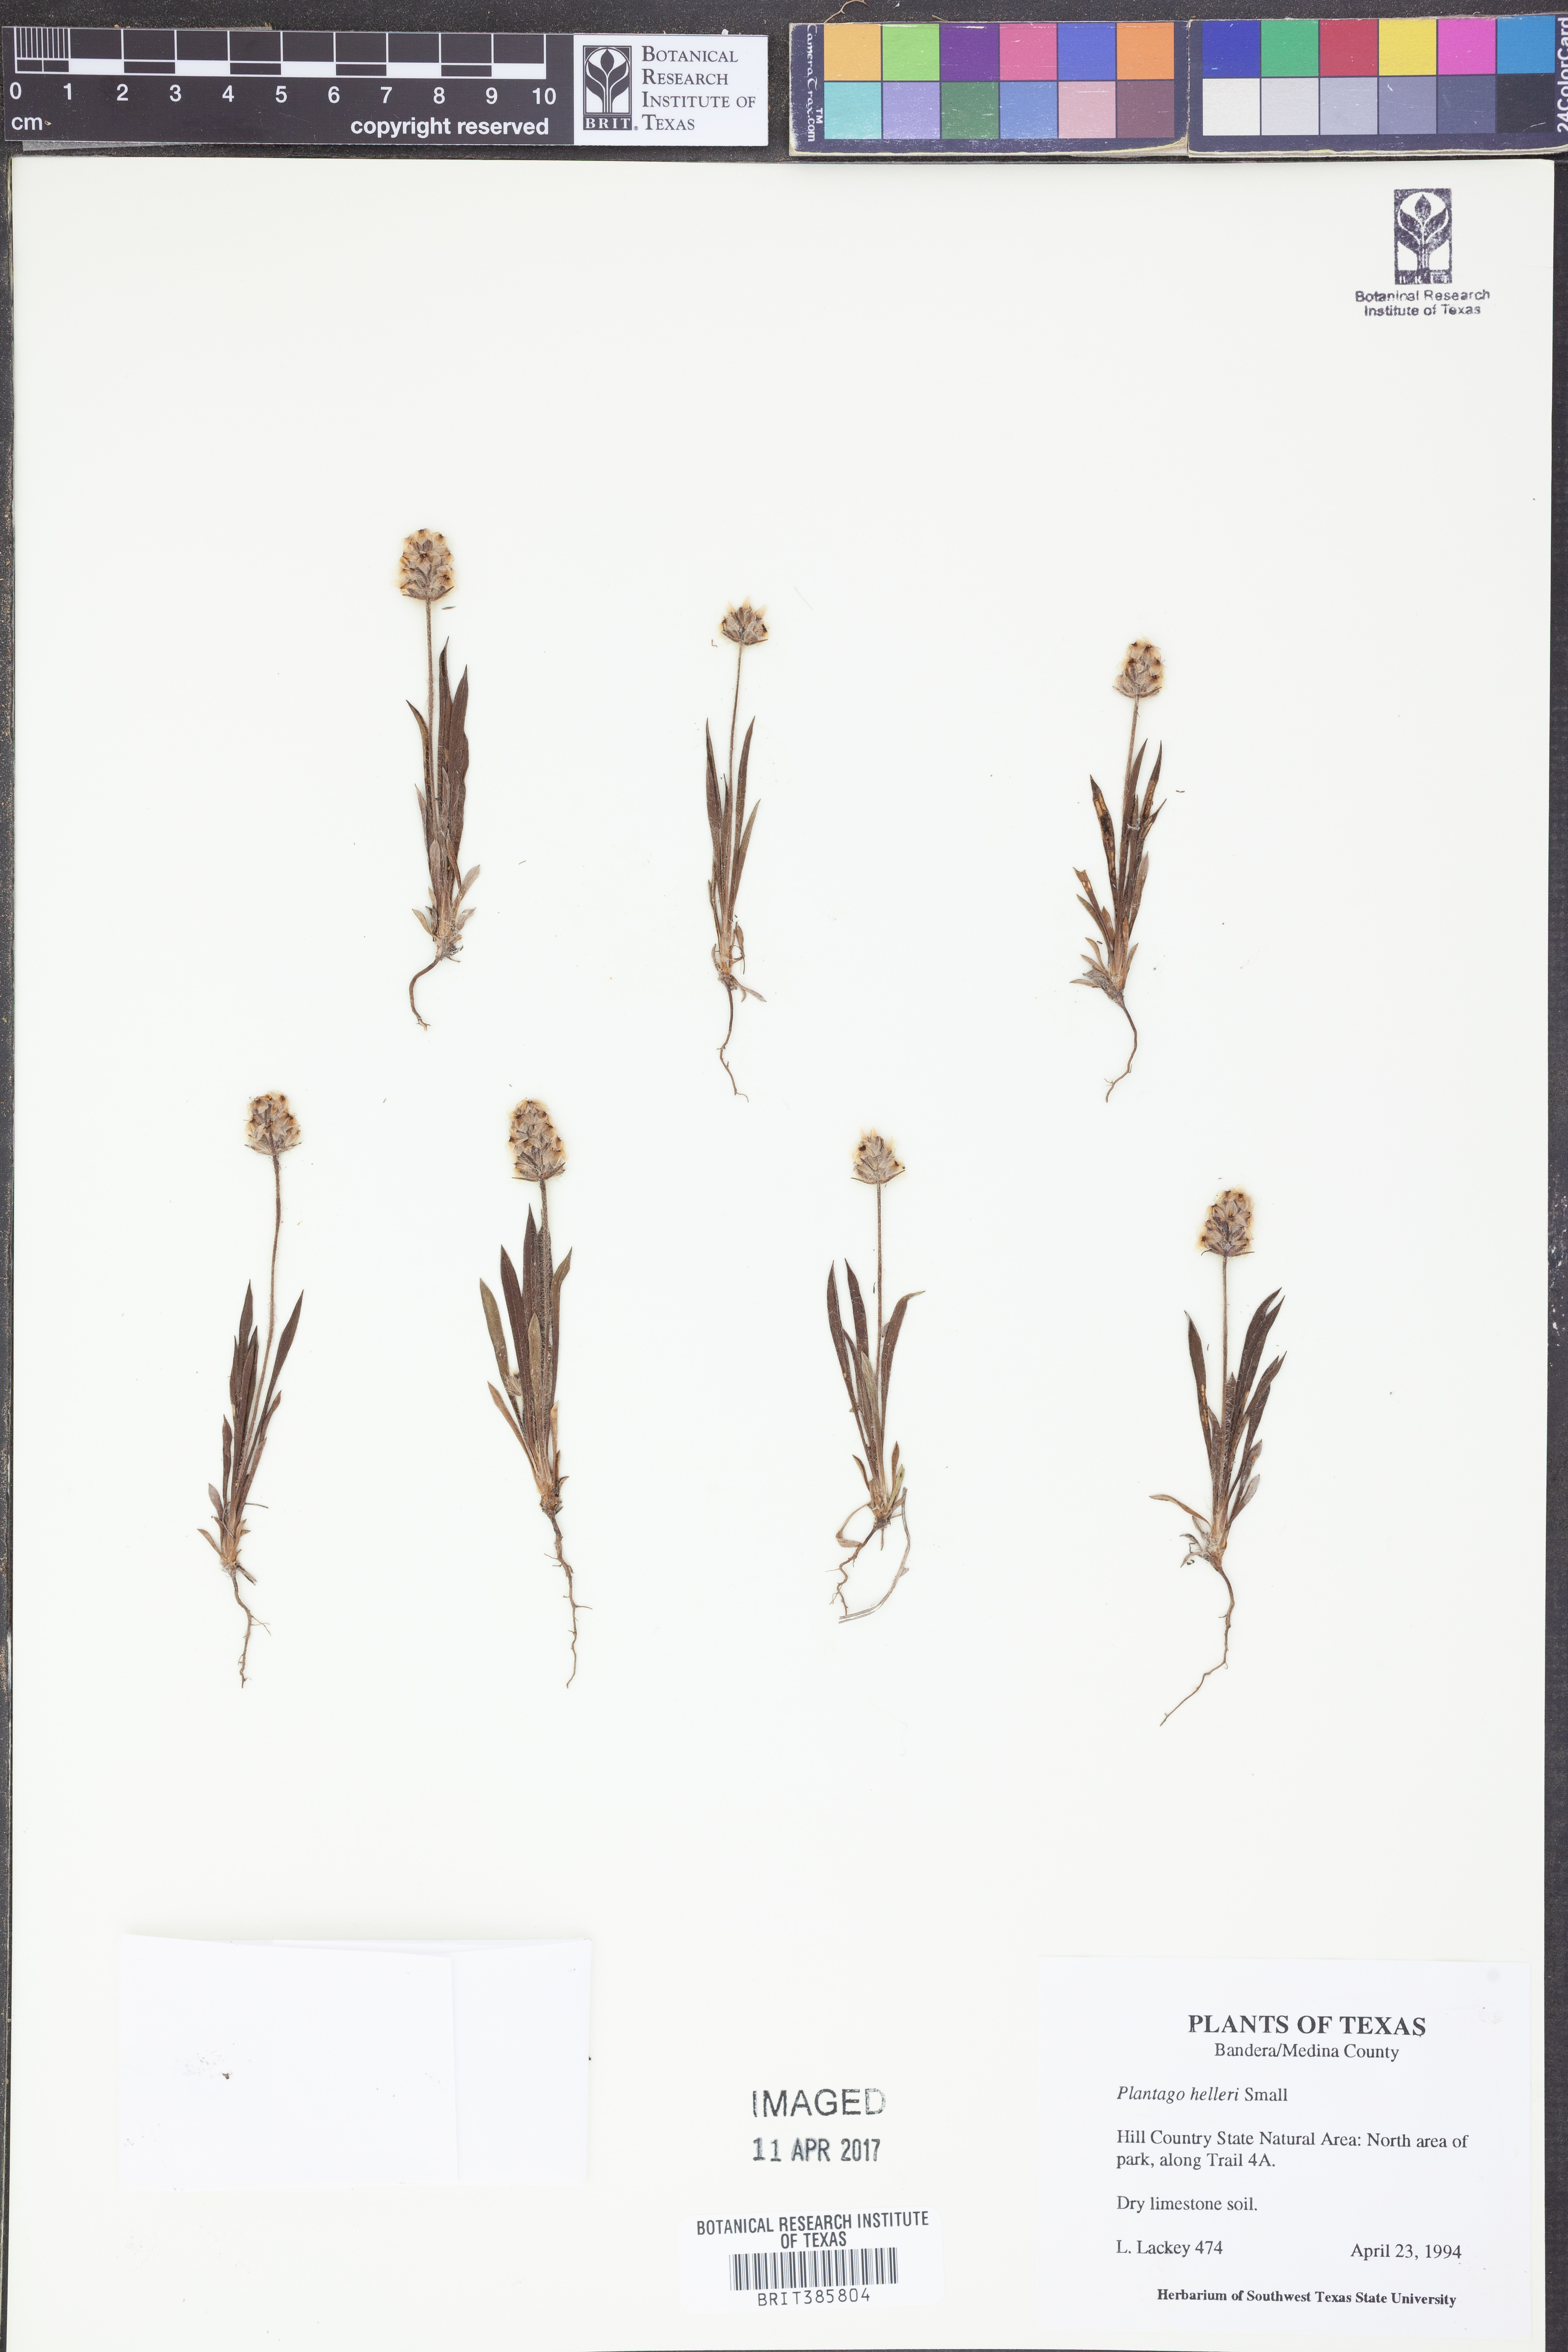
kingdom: Plantae
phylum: Tracheophyta
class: Magnoliopsida
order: Lamiales
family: Plantaginaceae
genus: Plantago
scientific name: Plantago helleri
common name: Heller's plantain
